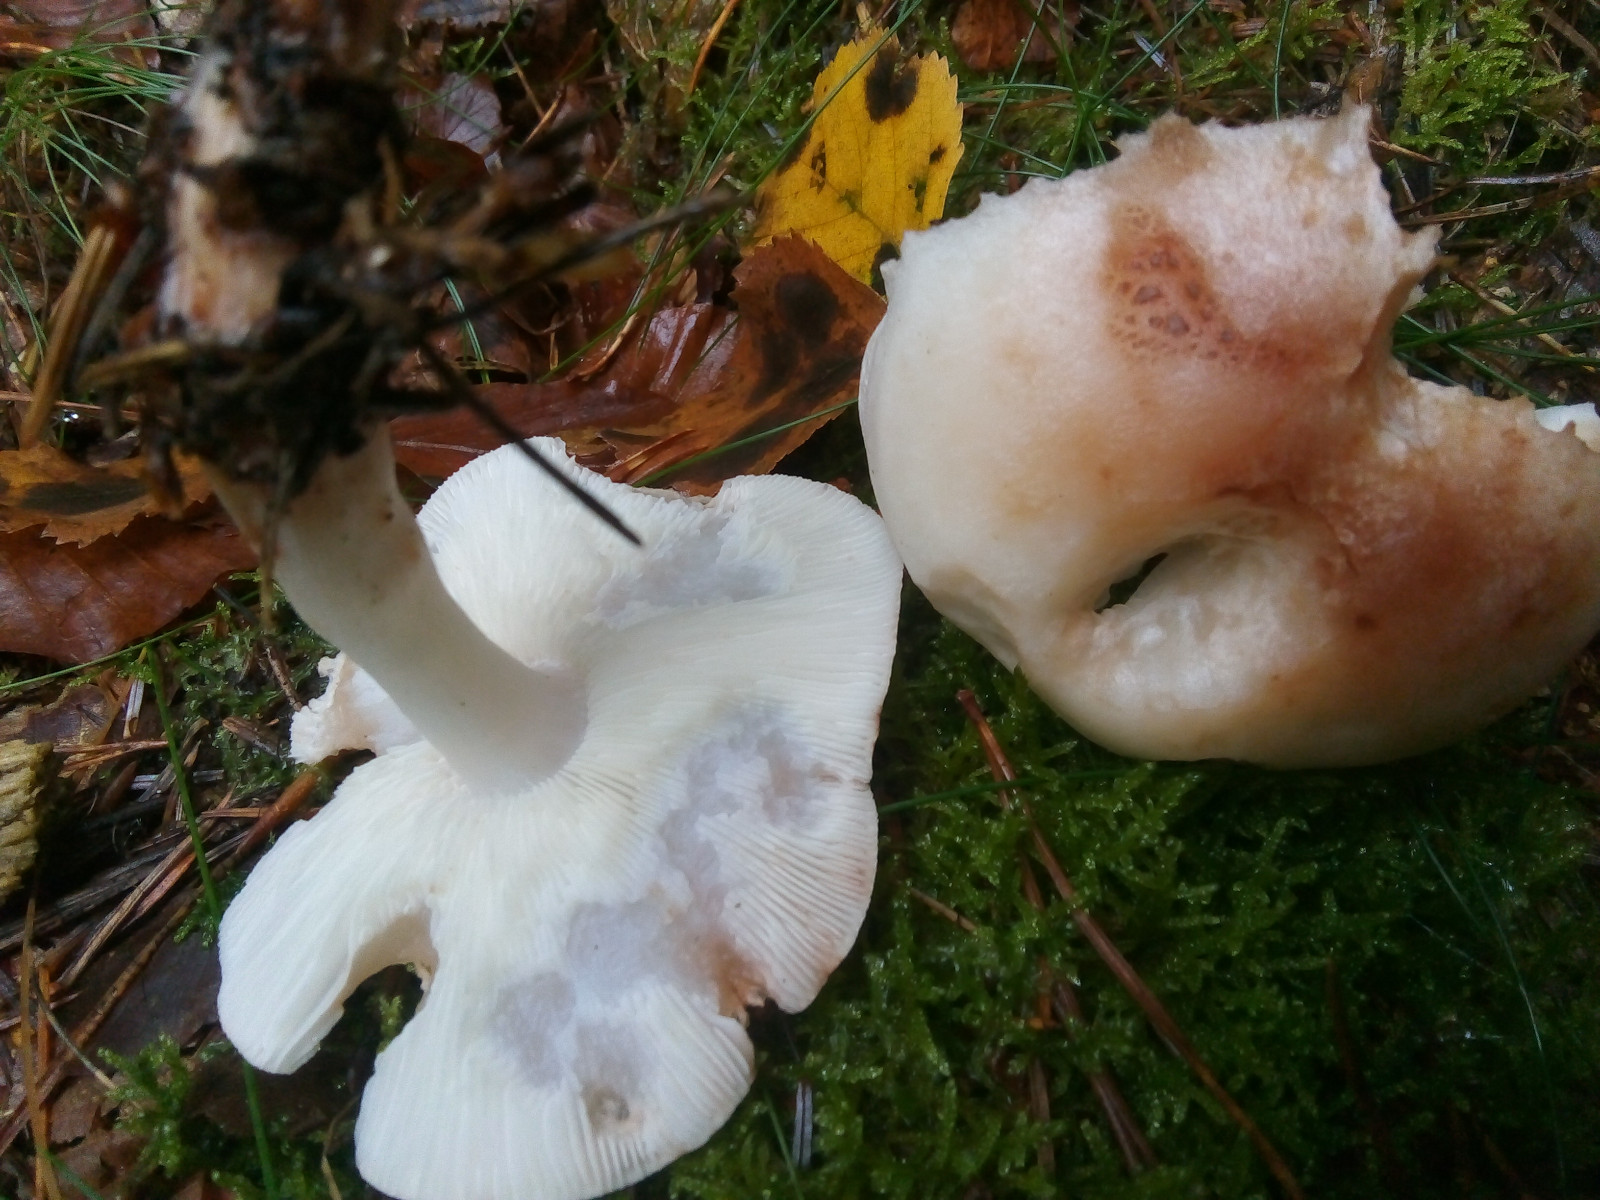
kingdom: Fungi
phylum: Basidiomycota
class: Agaricomycetes
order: Agaricales
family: Omphalotaceae
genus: Rhodocollybia
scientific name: Rhodocollybia maculata
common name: plettet fladhat
